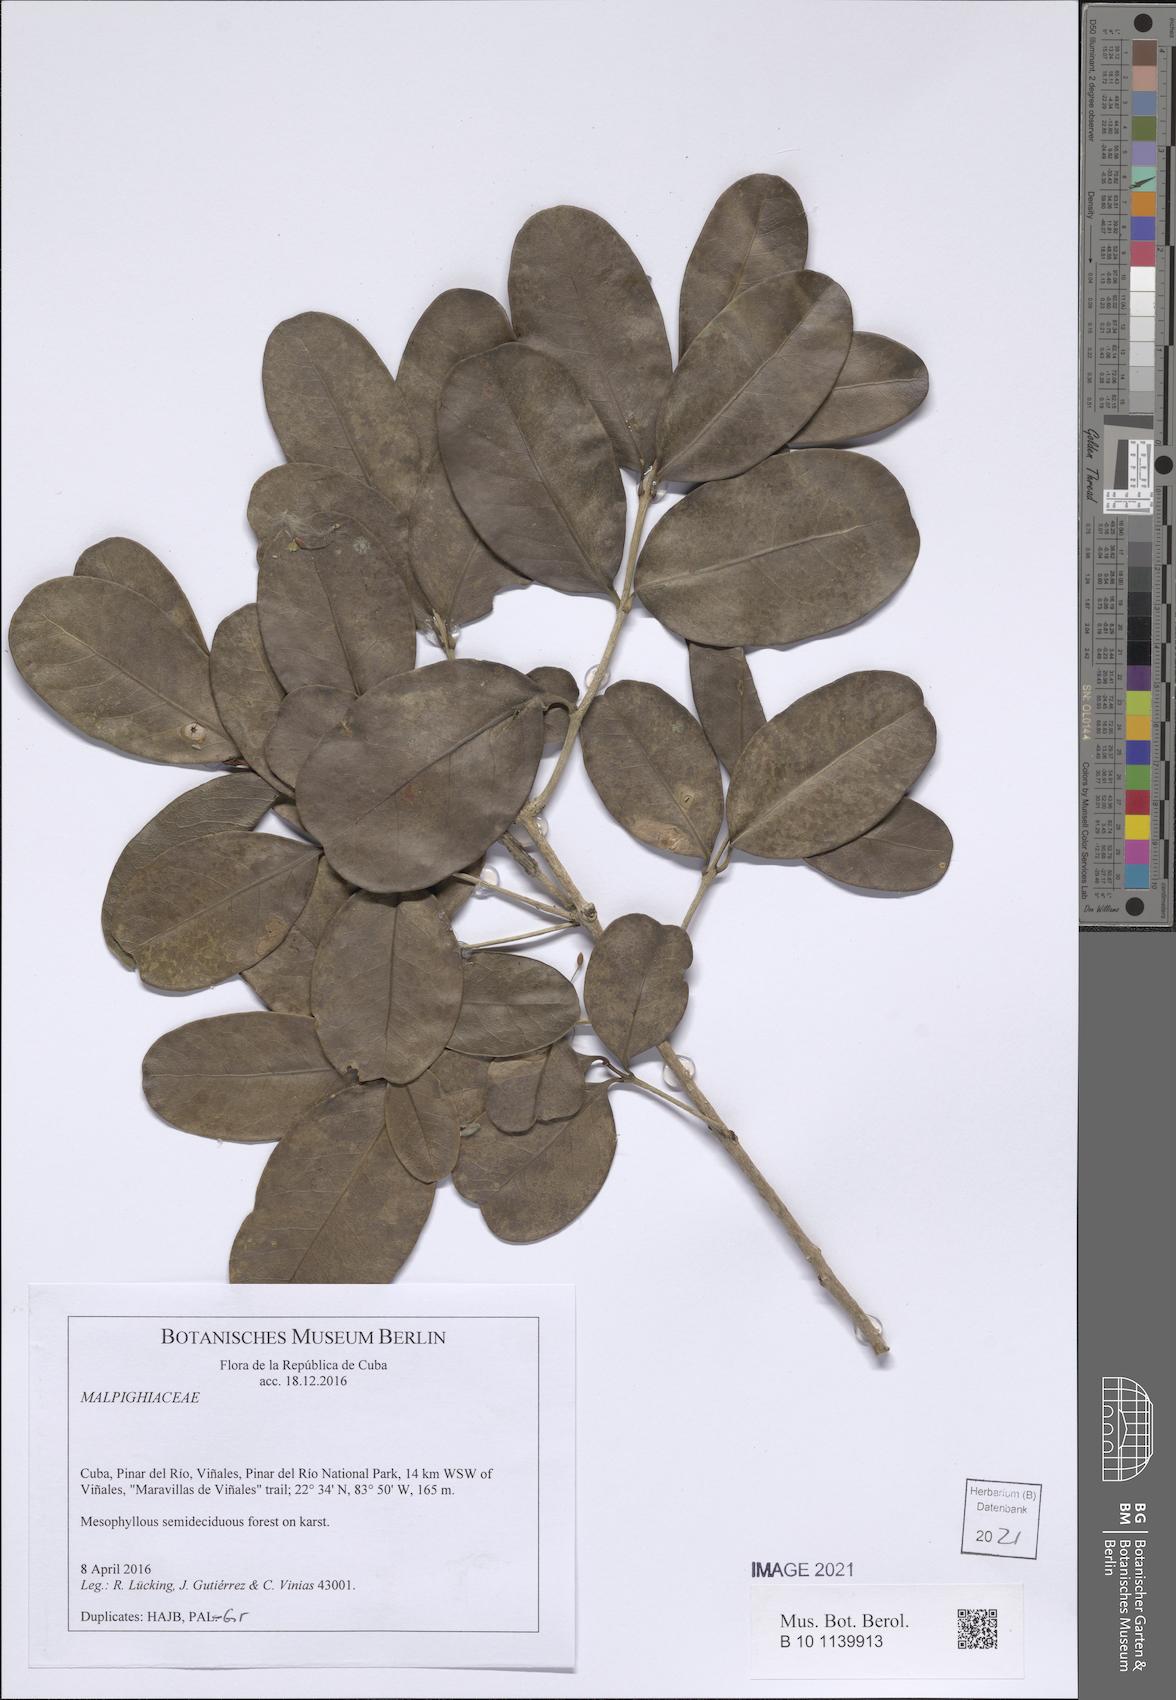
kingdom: Plantae
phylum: Tracheophyta
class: Magnoliopsida
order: Aquifoliales
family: Aquifoliaceae
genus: Ilex
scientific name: Ilex bahiahondica
